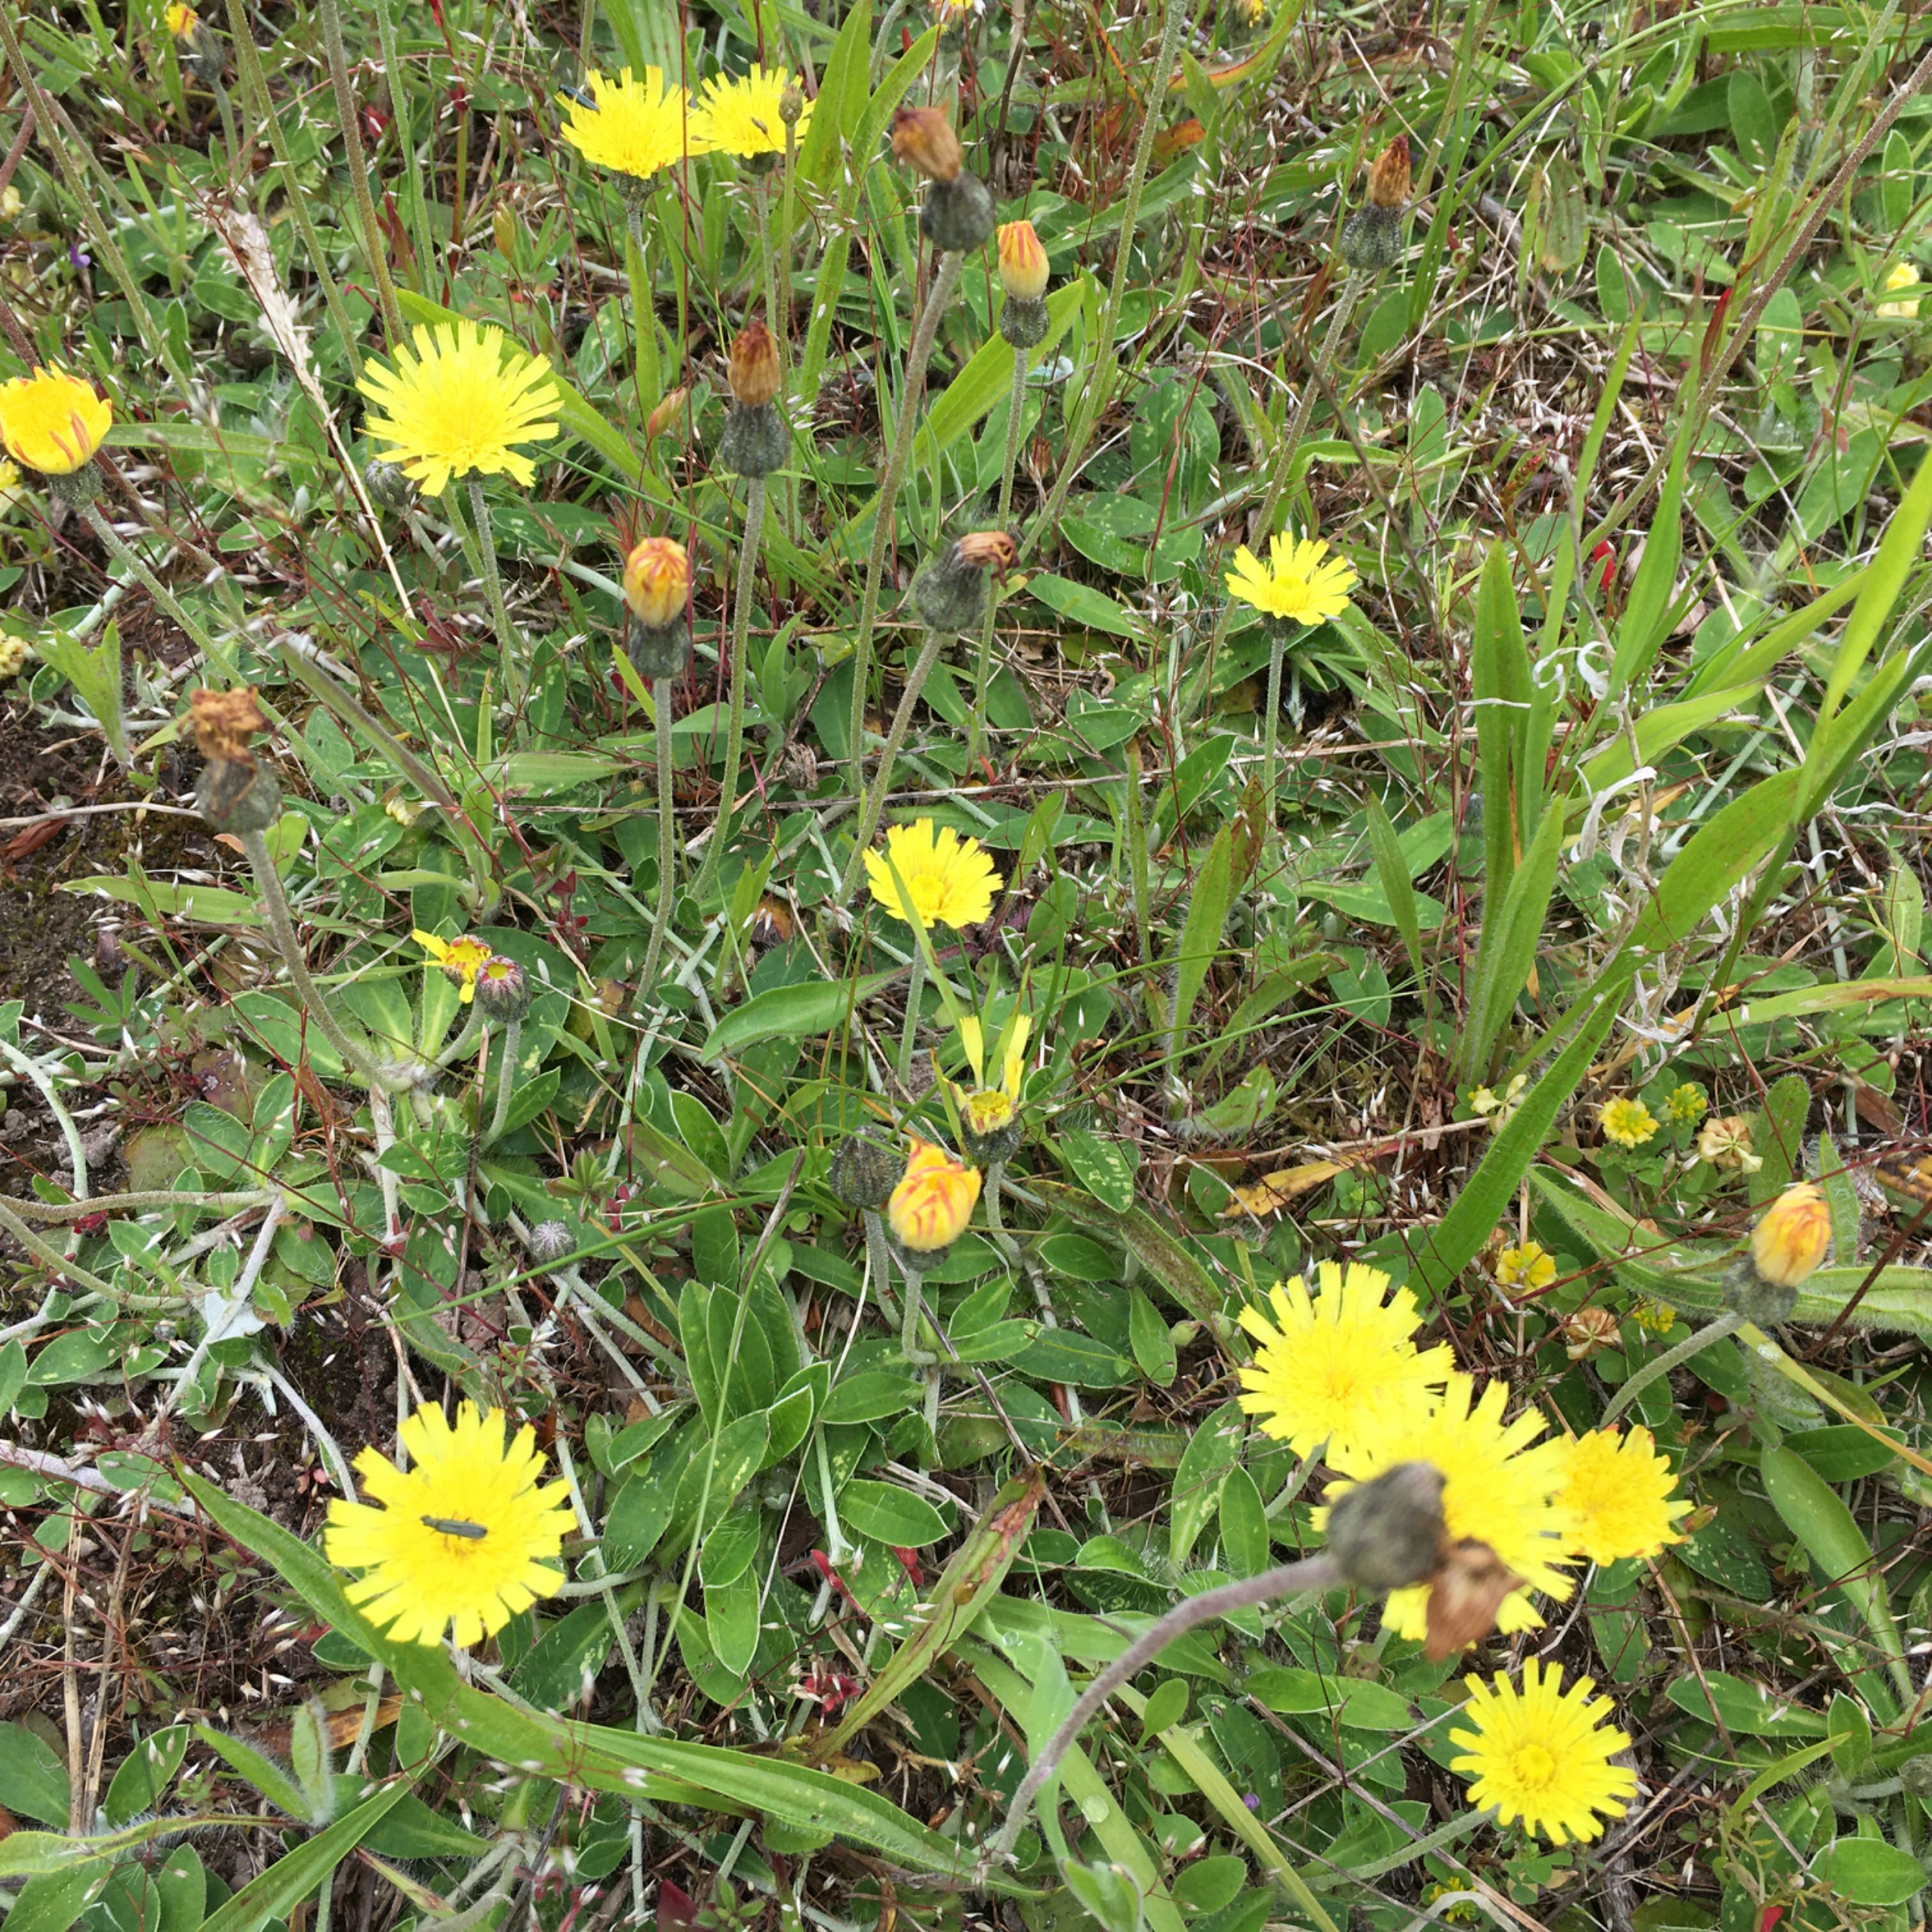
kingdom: Plantae
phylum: Tracheophyta
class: Magnoliopsida
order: Asterales
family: Asteraceae
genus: Pilosella
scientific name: Pilosella officinarum
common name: Håret høgeurt
